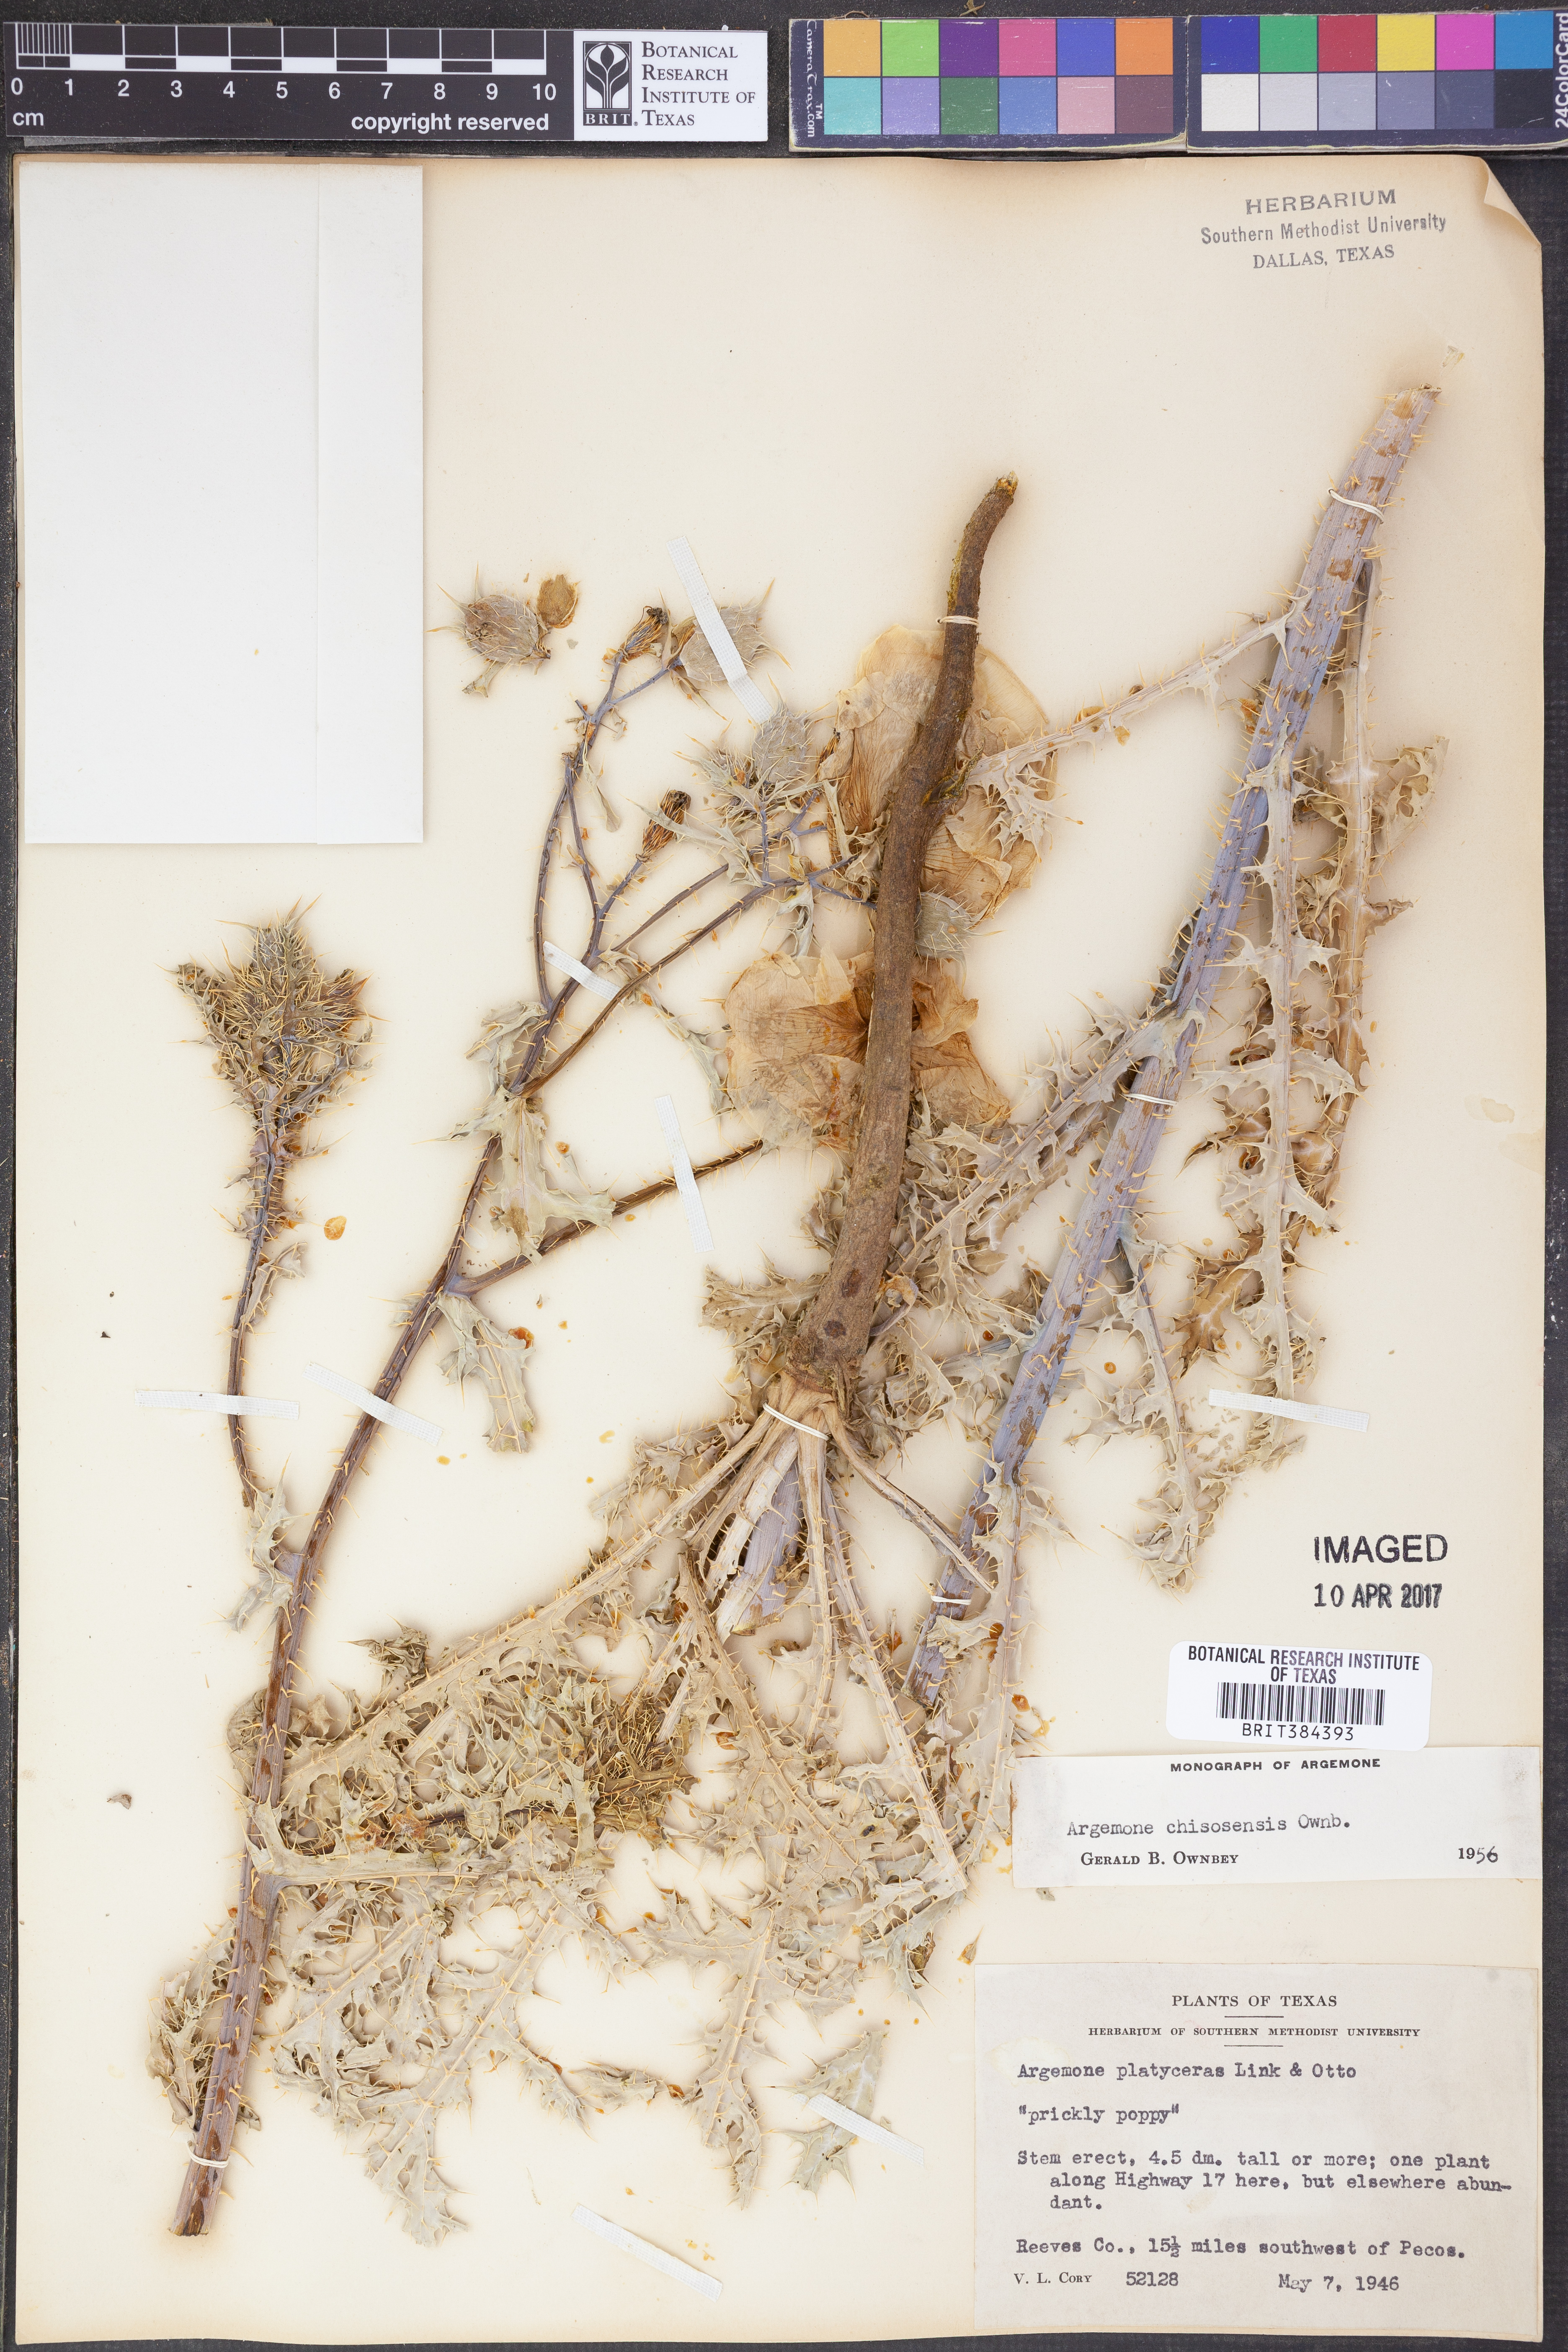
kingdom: Plantae
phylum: Tracheophyta
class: Magnoliopsida
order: Ranunculales
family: Papaveraceae
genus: Argemone
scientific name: Argemone chisosensis
